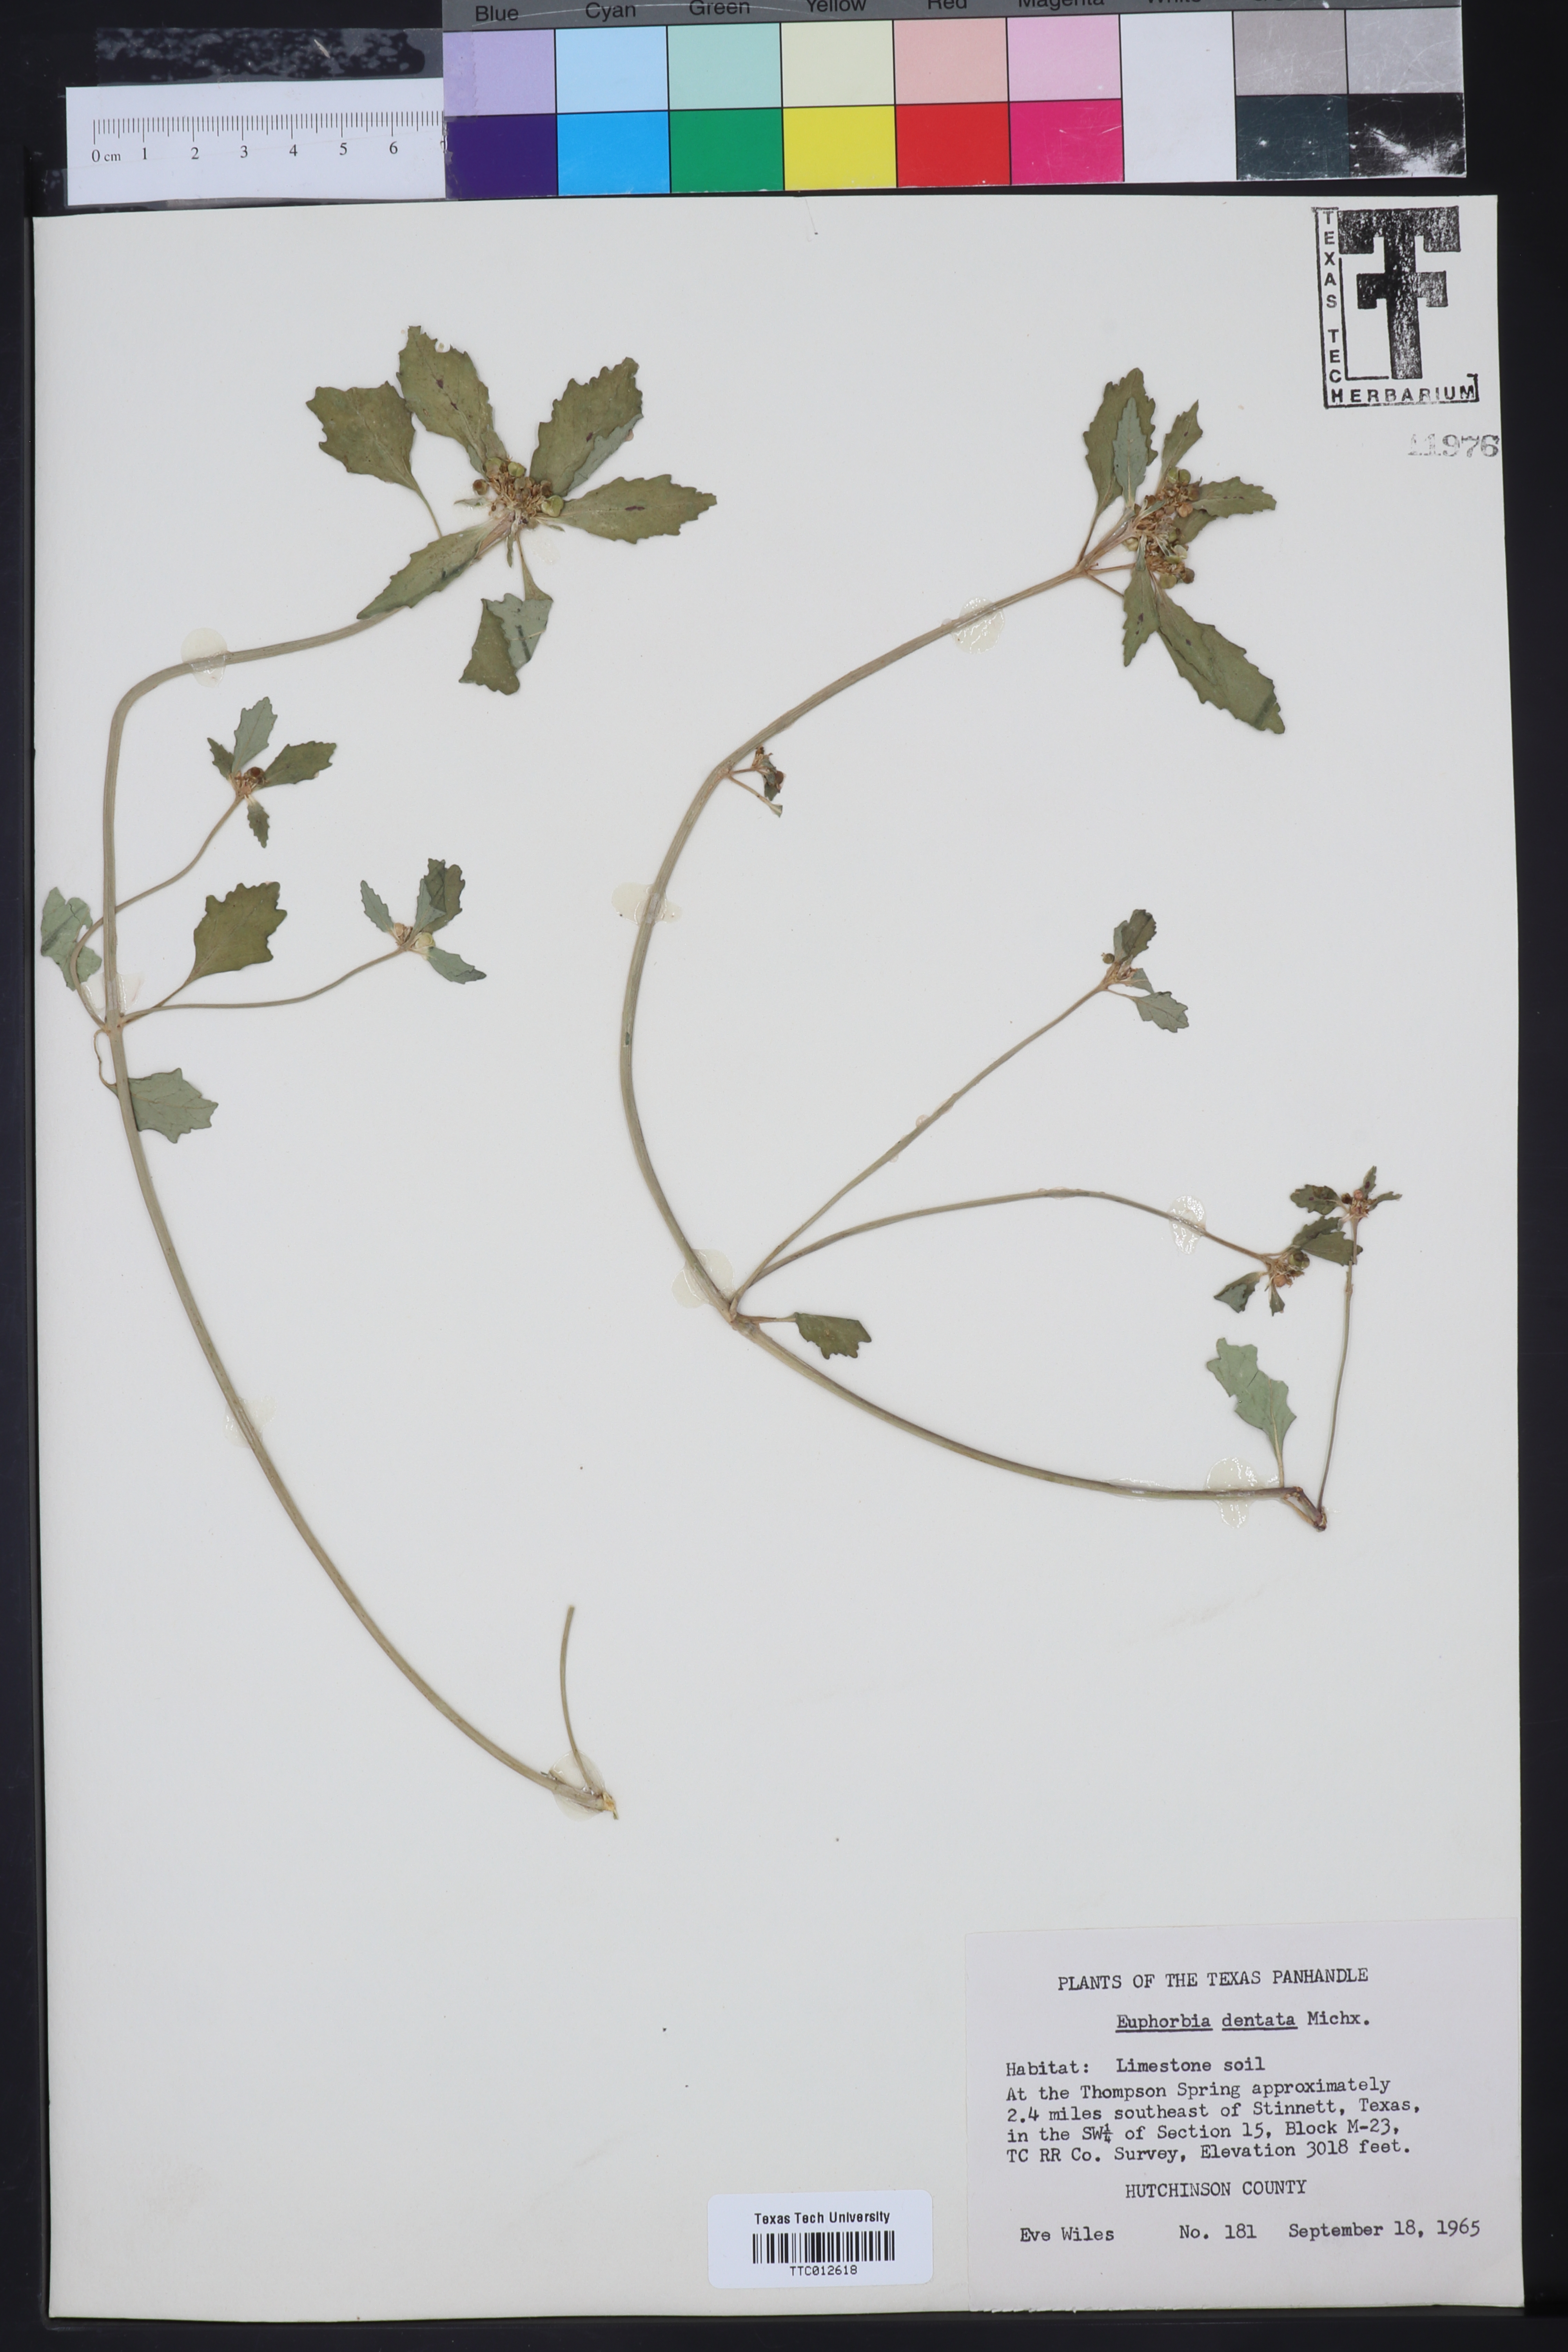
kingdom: Plantae
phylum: Tracheophyta
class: Magnoliopsida
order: Malpighiales
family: Euphorbiaceae
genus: Euphorbia
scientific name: Euphorbia dentata
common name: Dentate spurge
